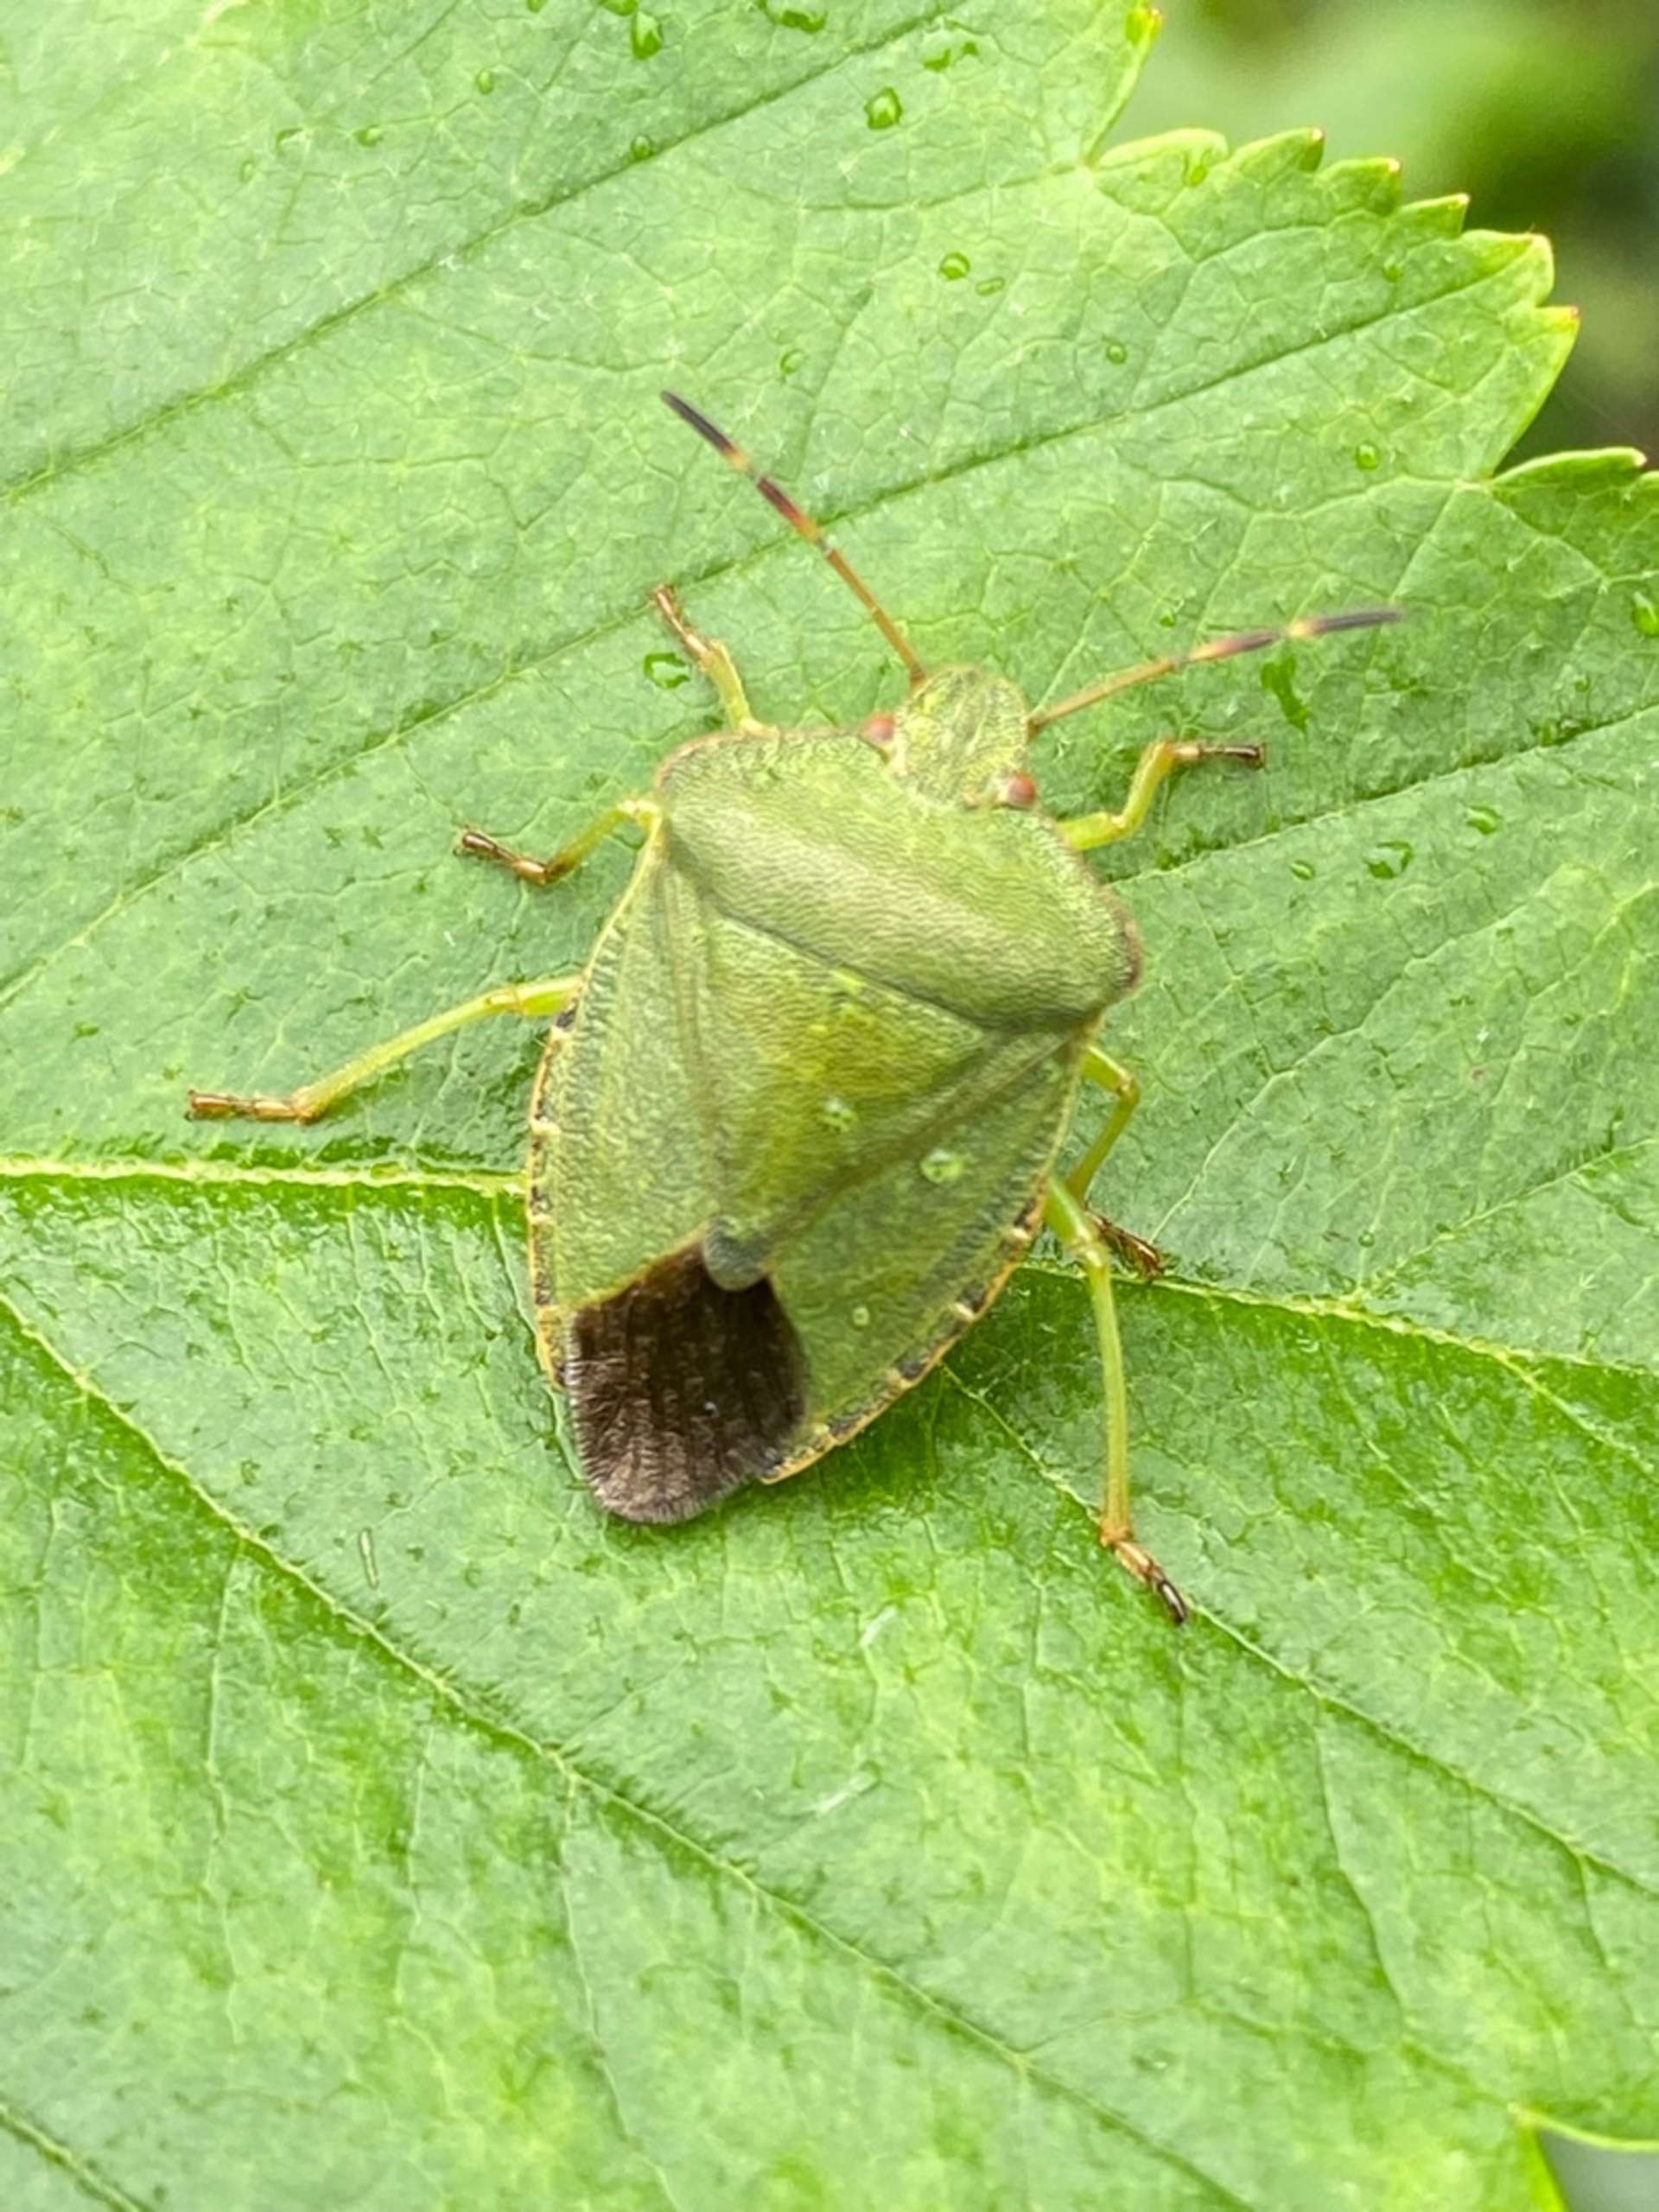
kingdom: Animalia
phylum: Arthropoda
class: Insecta
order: Hemiptera
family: Pentatomidae
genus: Palomena
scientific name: Palomena prasina
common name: Grøn bredtæge
